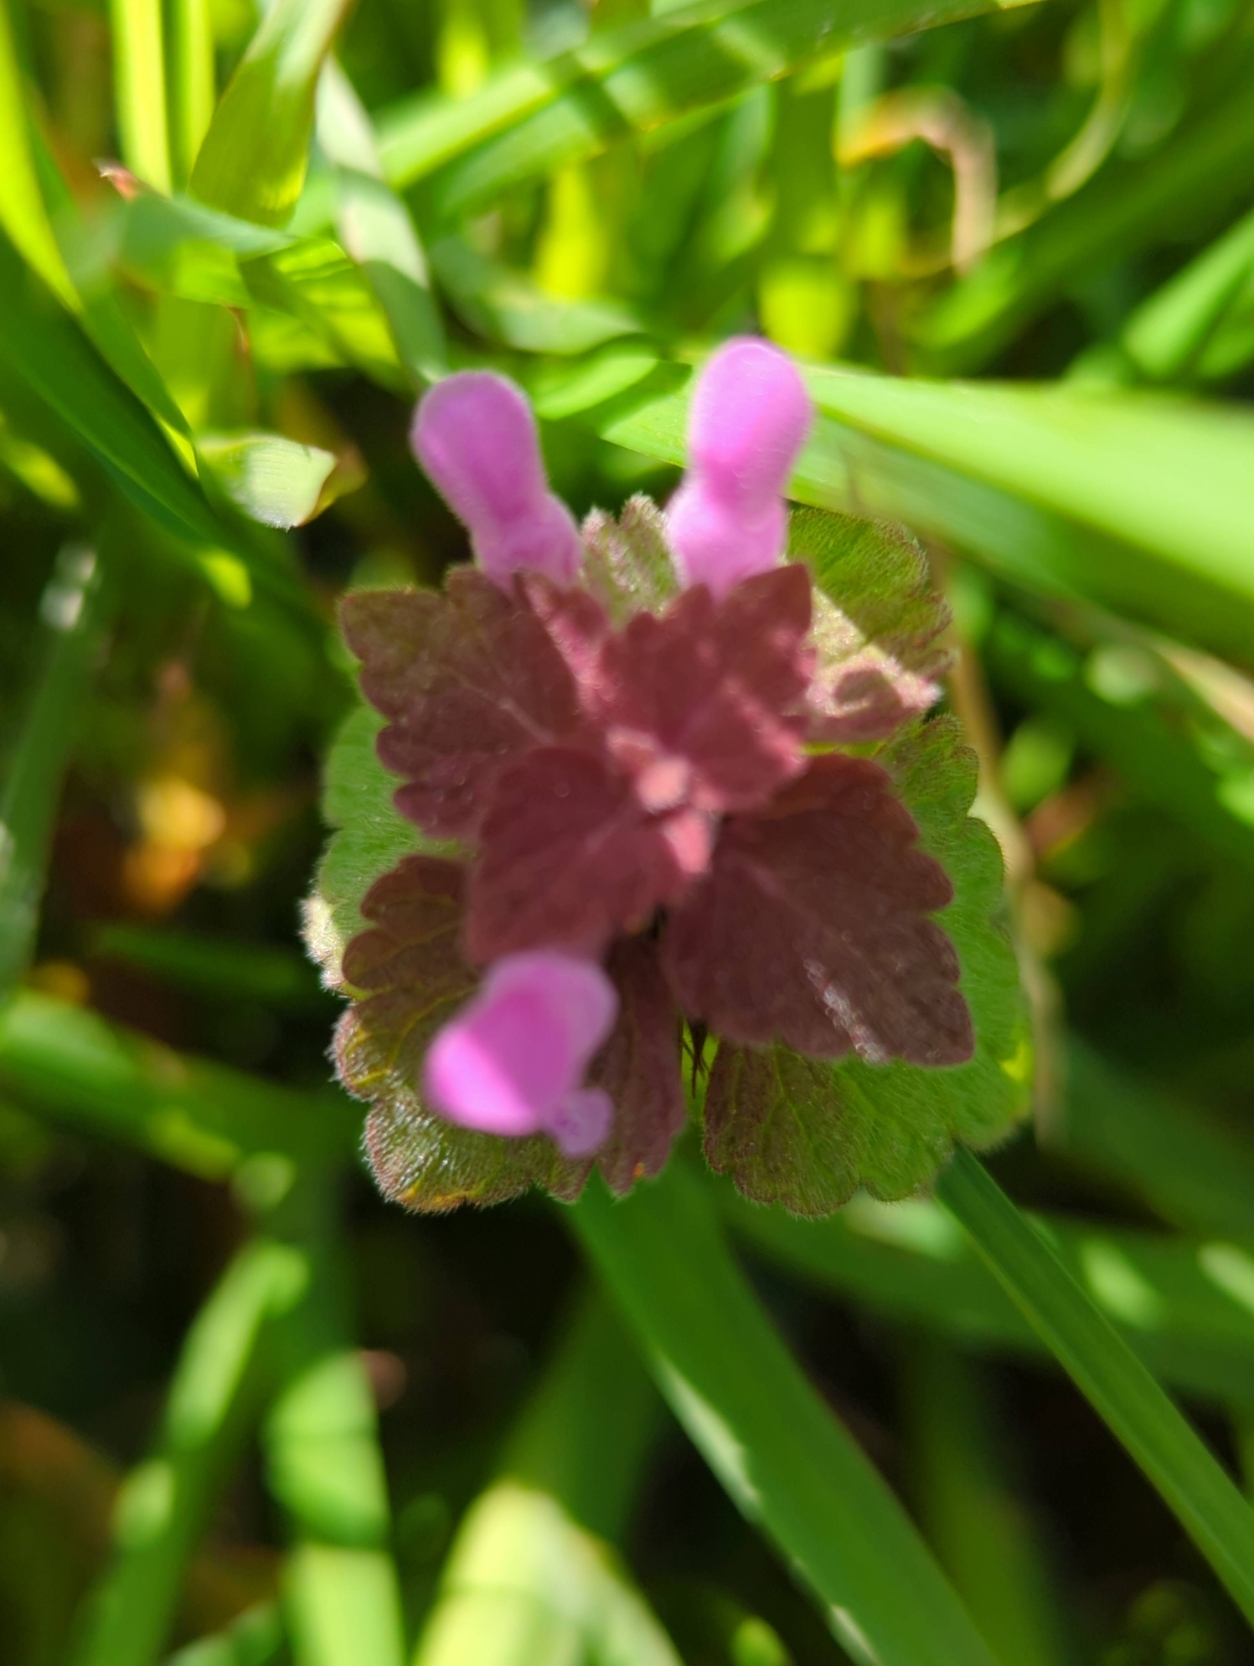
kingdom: Plantae
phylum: Tracheophyta
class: Magnoliopsida
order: Lamiales
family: Lamiaceae
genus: Lamium
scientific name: Lamium purpureum
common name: Rød tvetand
